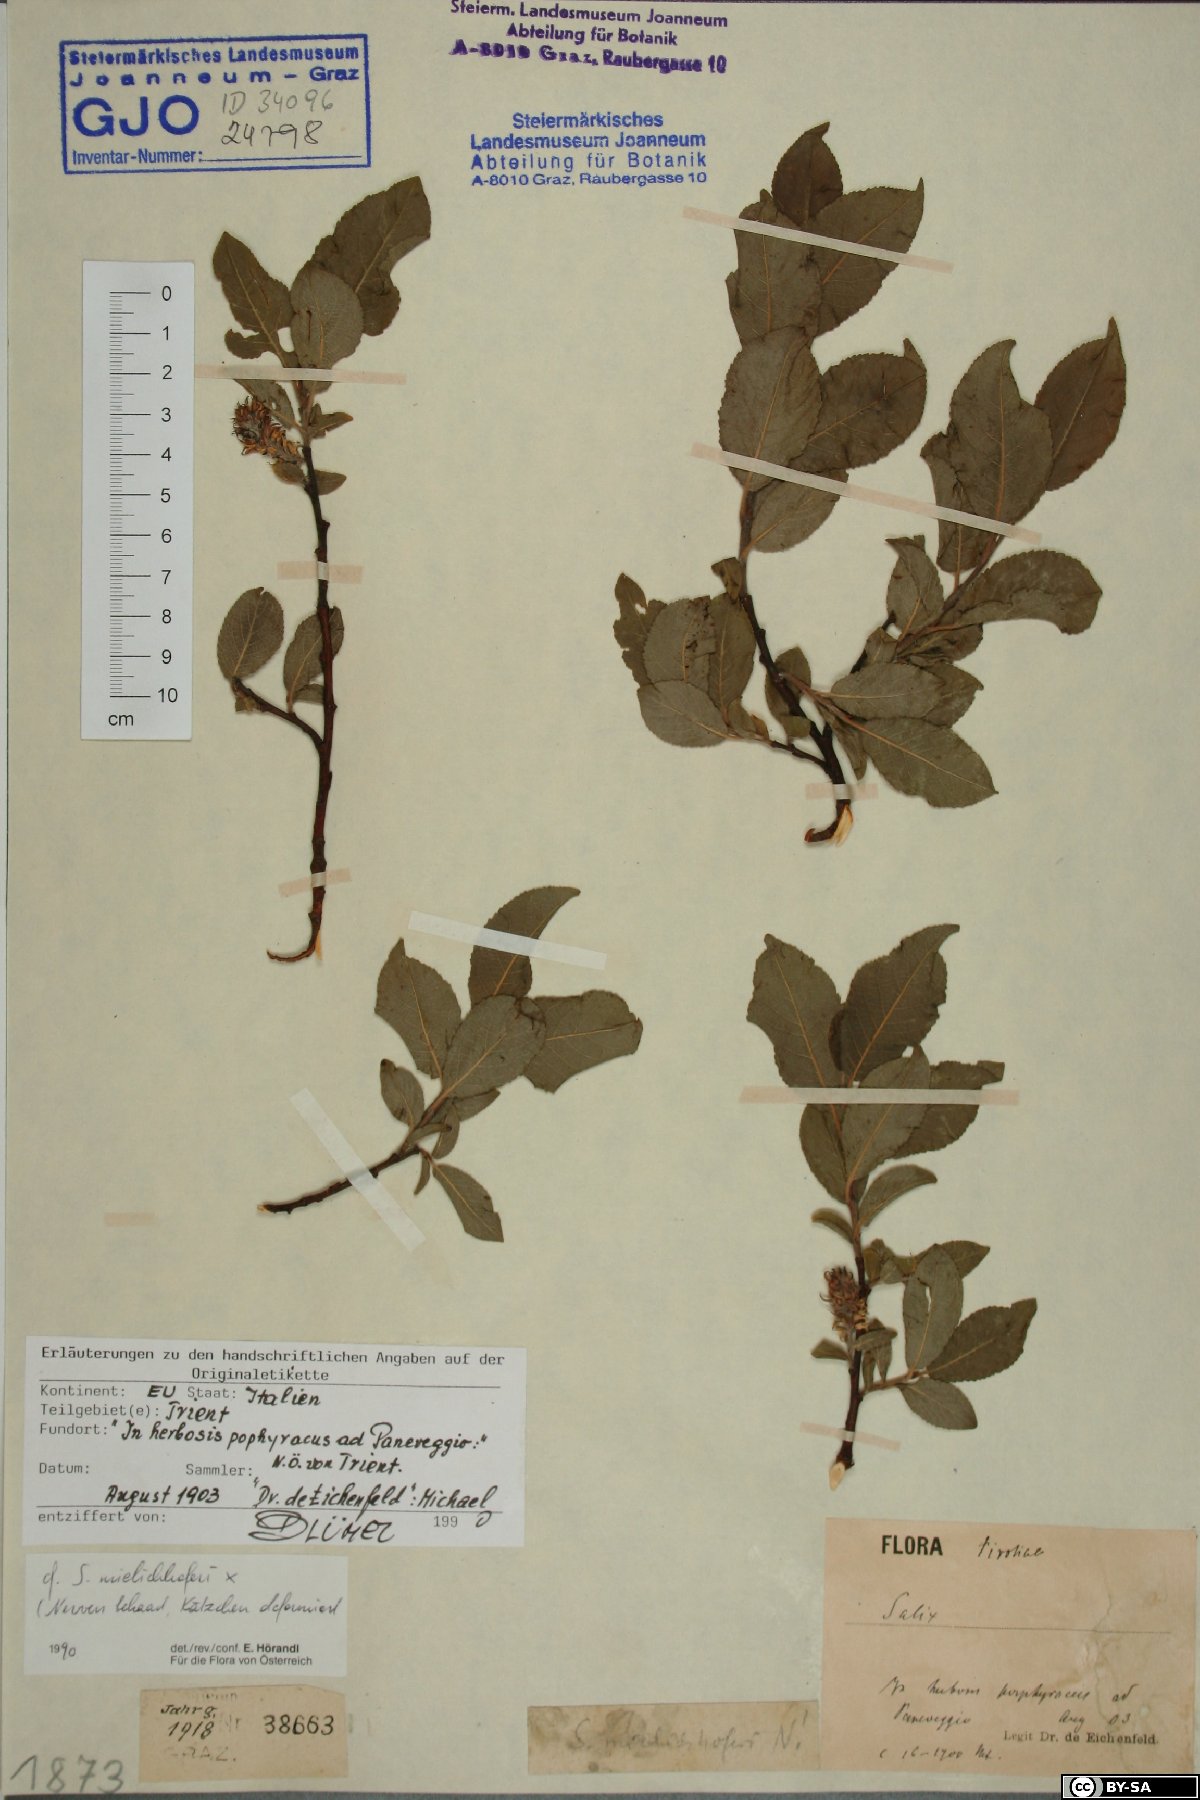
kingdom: Plantae
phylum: Tracheophyta
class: Magnoliopsida
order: Malpighiales
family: Salicaceae
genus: Salix
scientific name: Salix mielichhoferi
